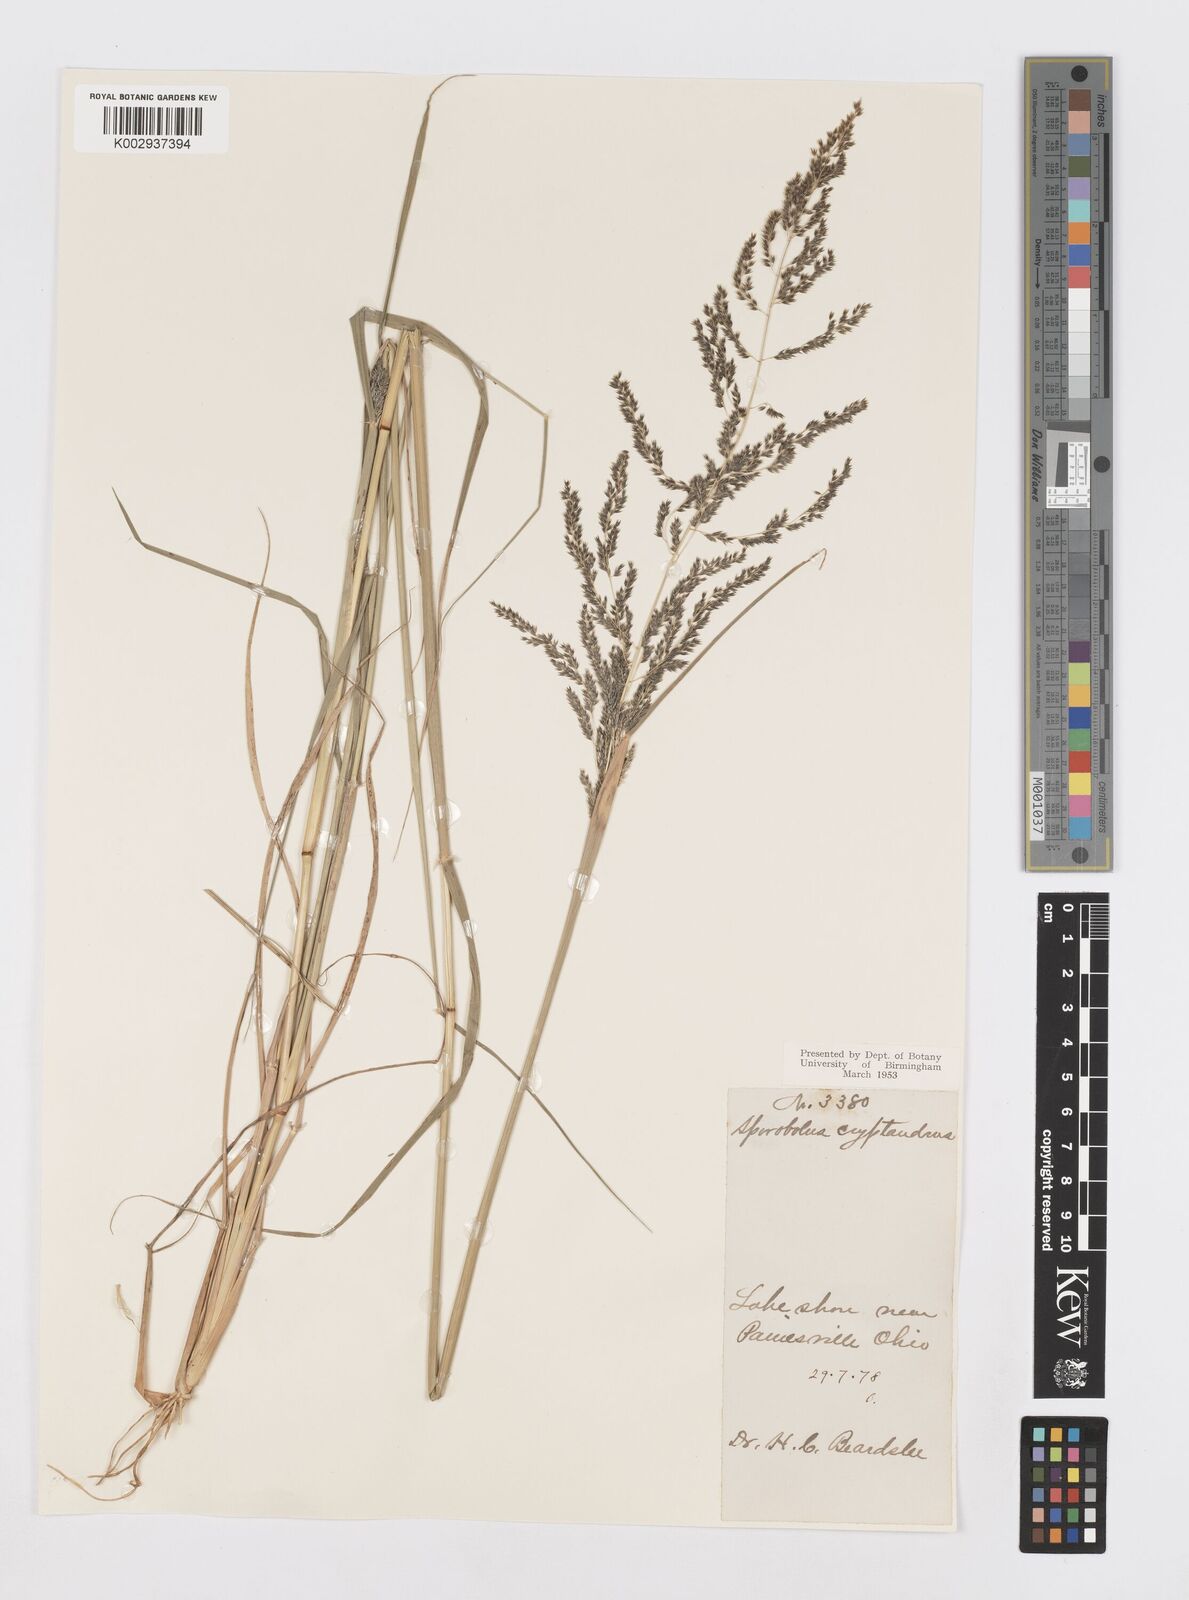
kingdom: Plantae
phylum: Tracheophyta
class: Liliopsida
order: Poales
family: Poaceae
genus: Sporobolus
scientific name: Sporobolus cryptandrus
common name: Sand dropseed
